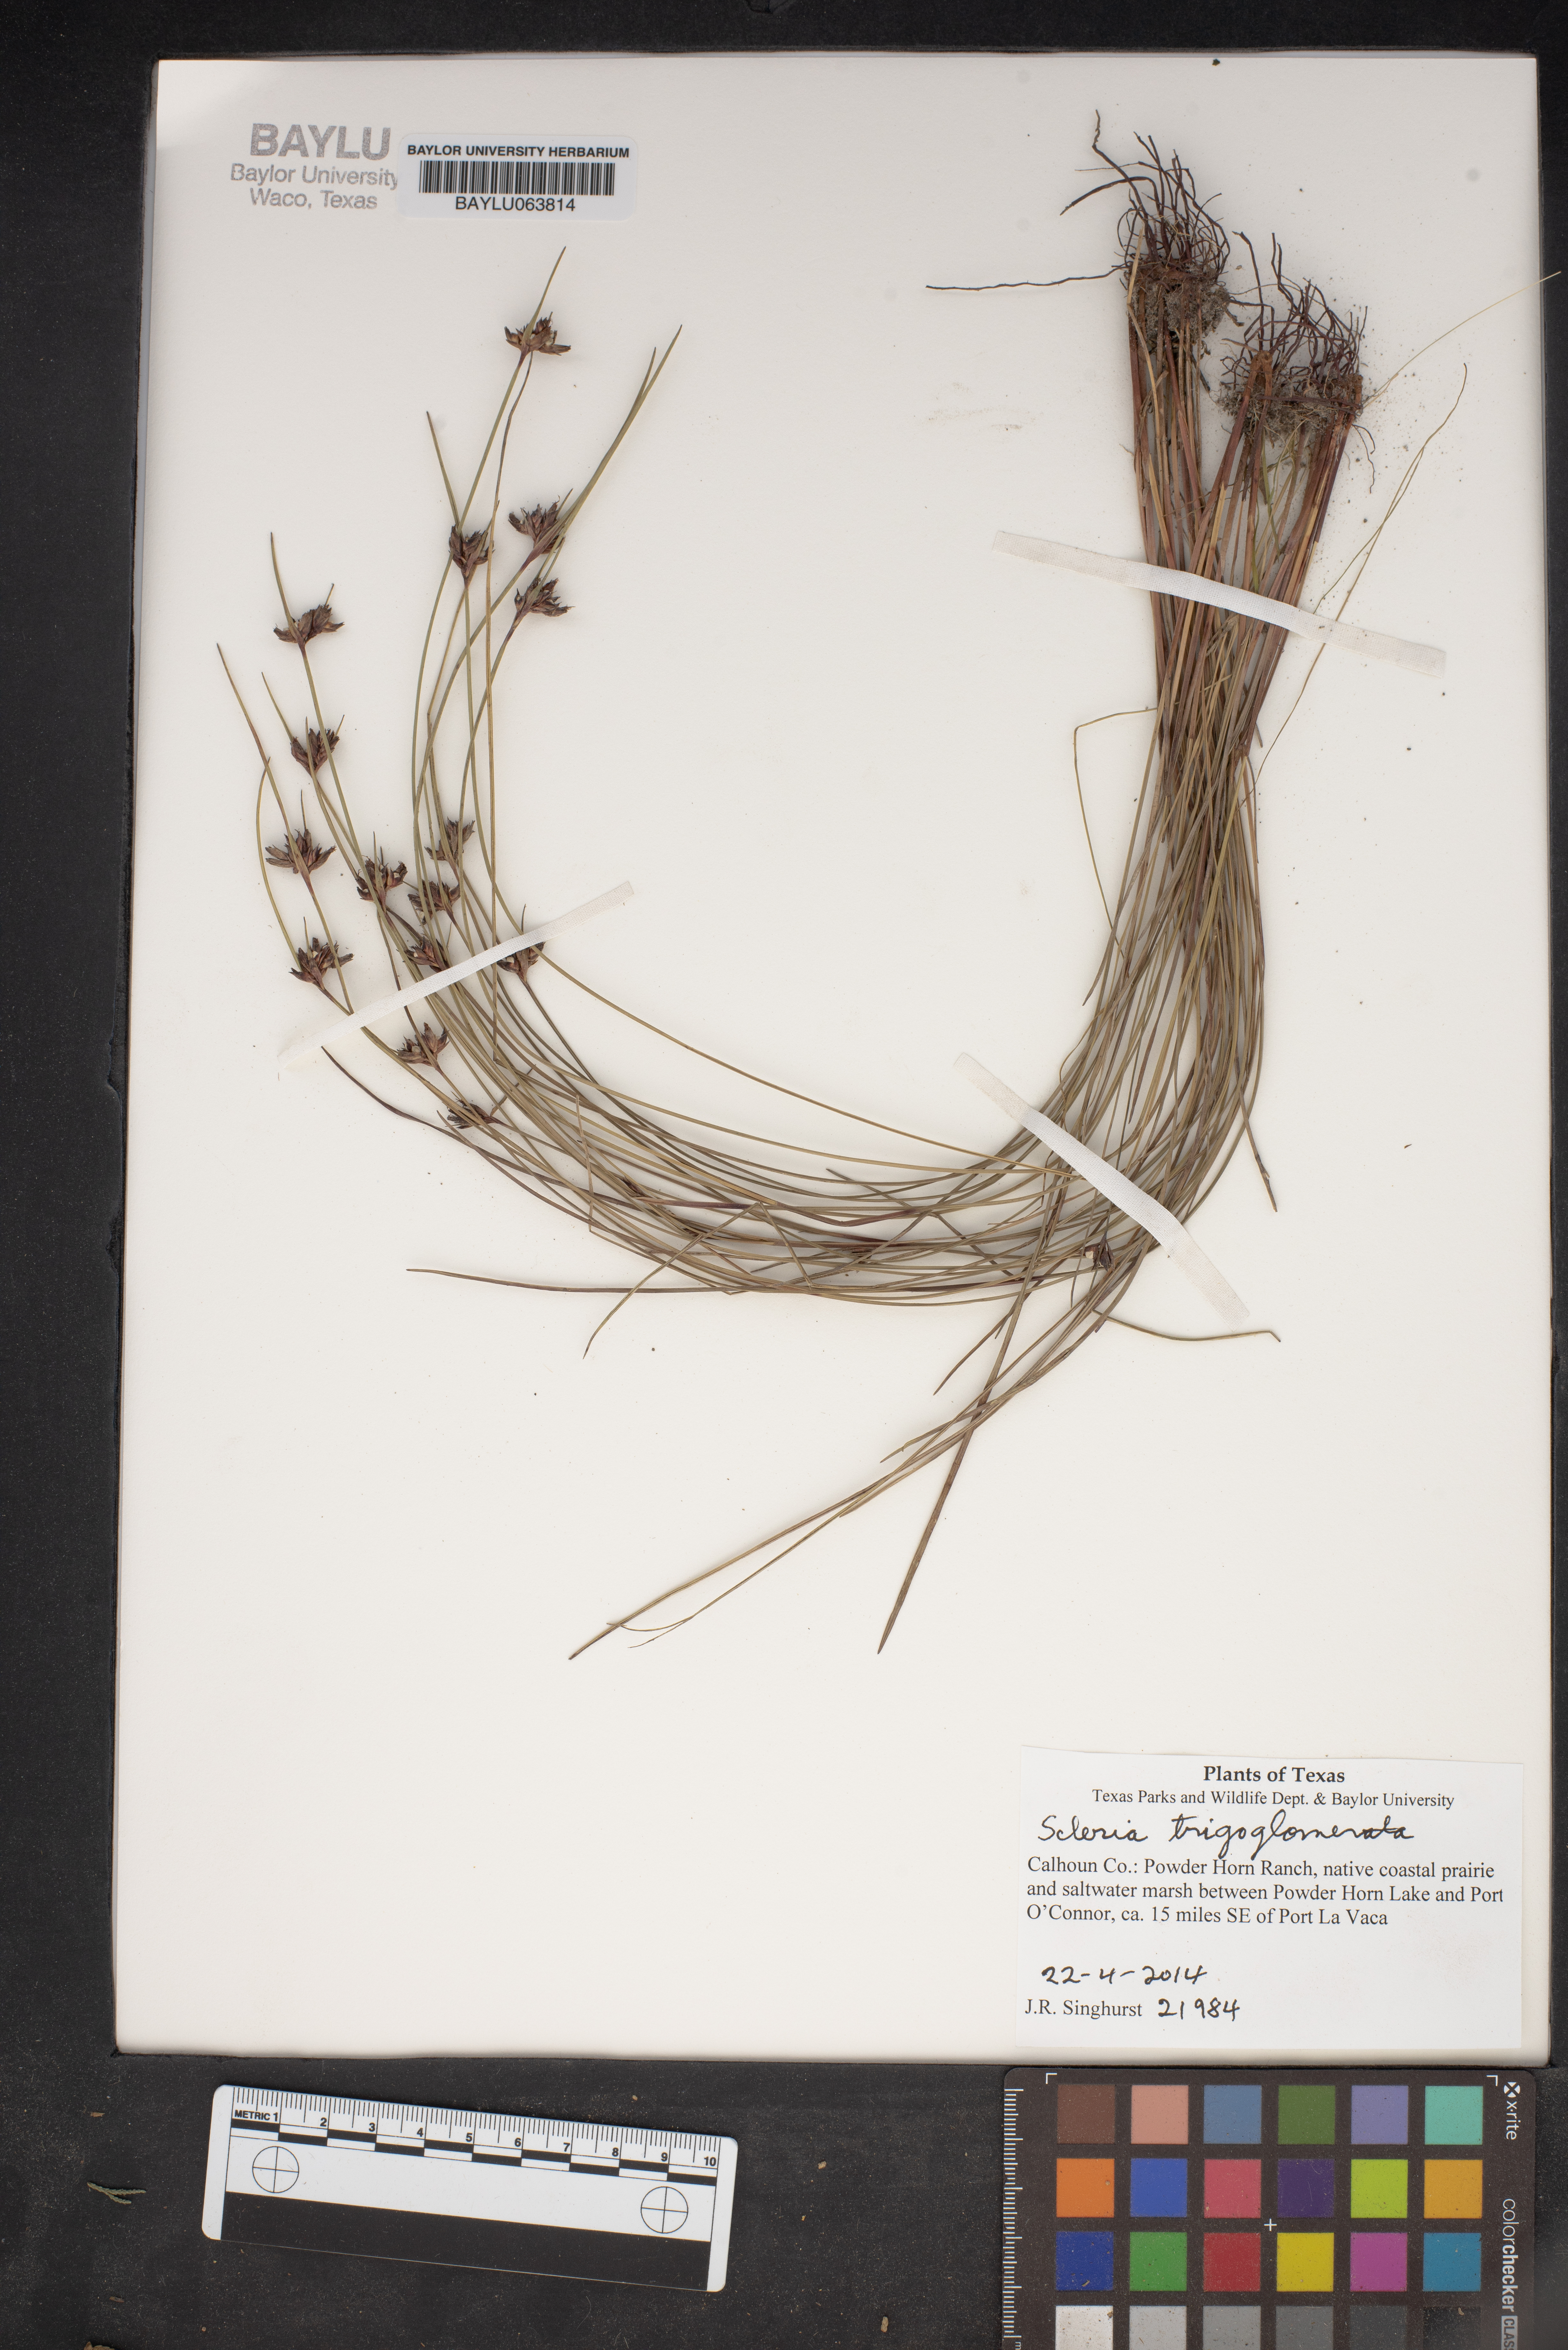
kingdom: Plantae
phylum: Tracheophyta
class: Liliopsida
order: Poales
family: Cyperaceae
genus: Scleria
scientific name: Scleria triglomerata
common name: Whip nutrush
